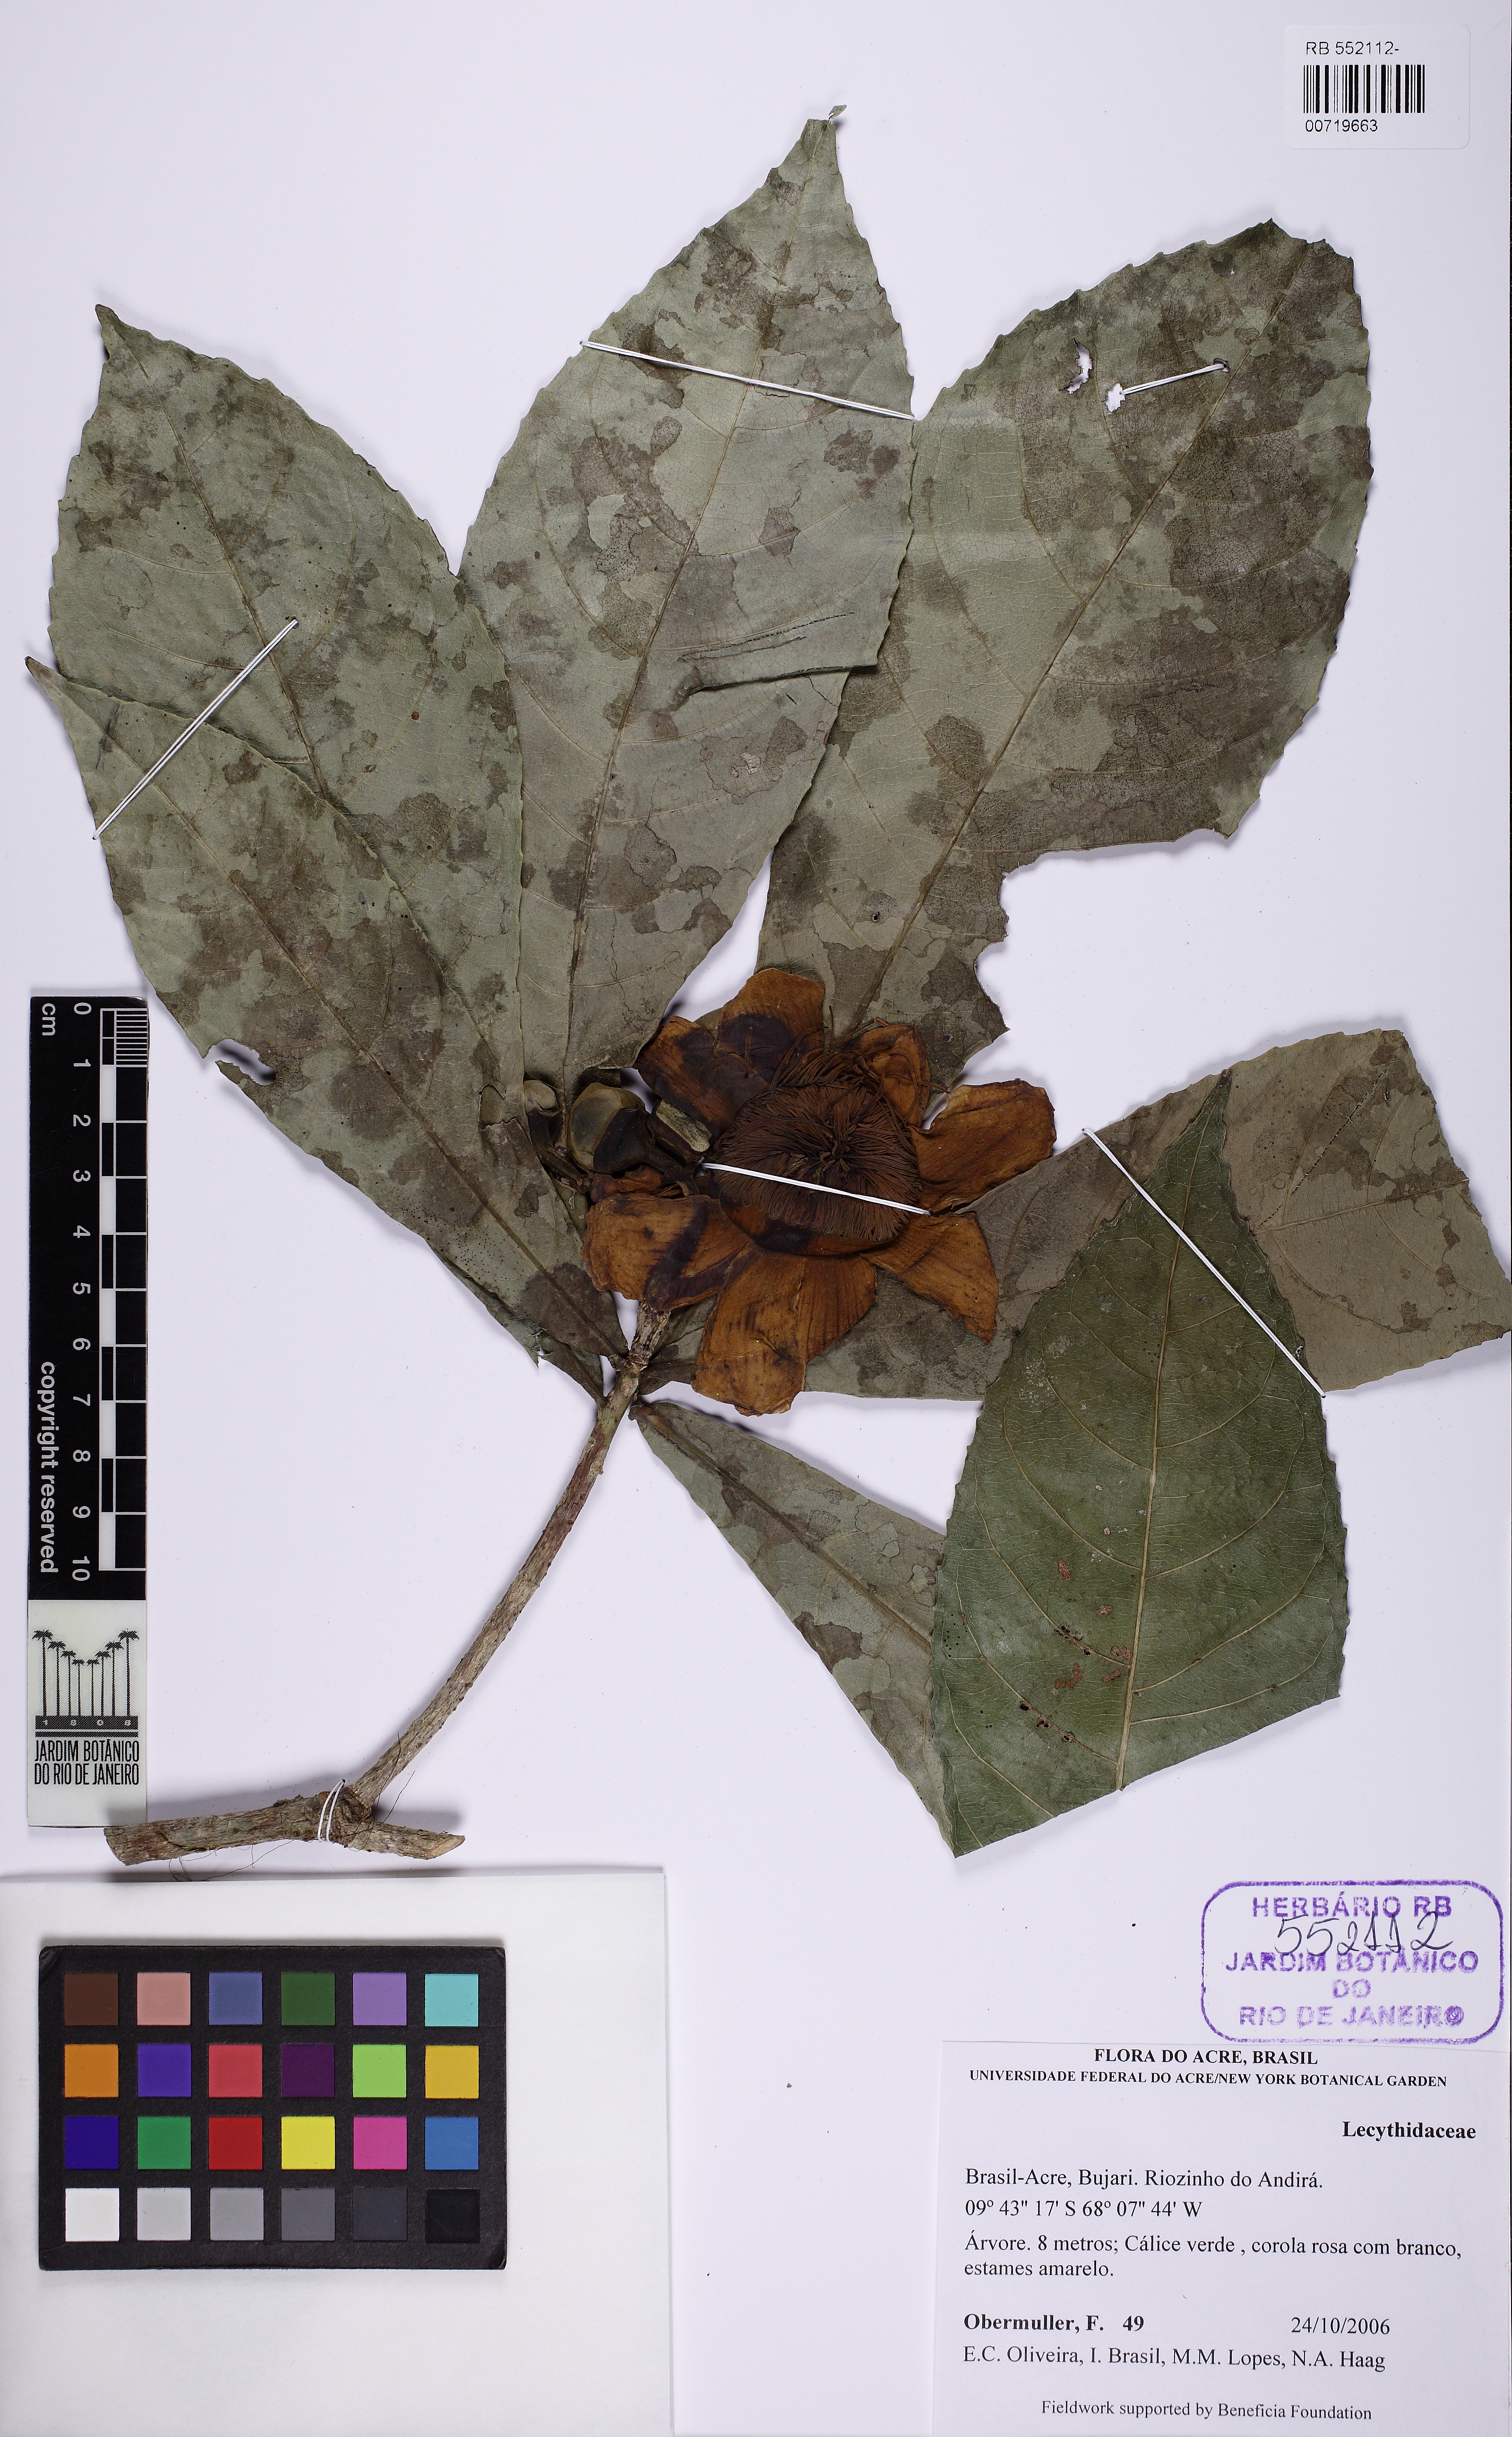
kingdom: Plantae
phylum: Tracheophyta
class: Magnoliopsida
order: Ericales
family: Lecythidaceae
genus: Gustavia
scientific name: Gustavia augusta
